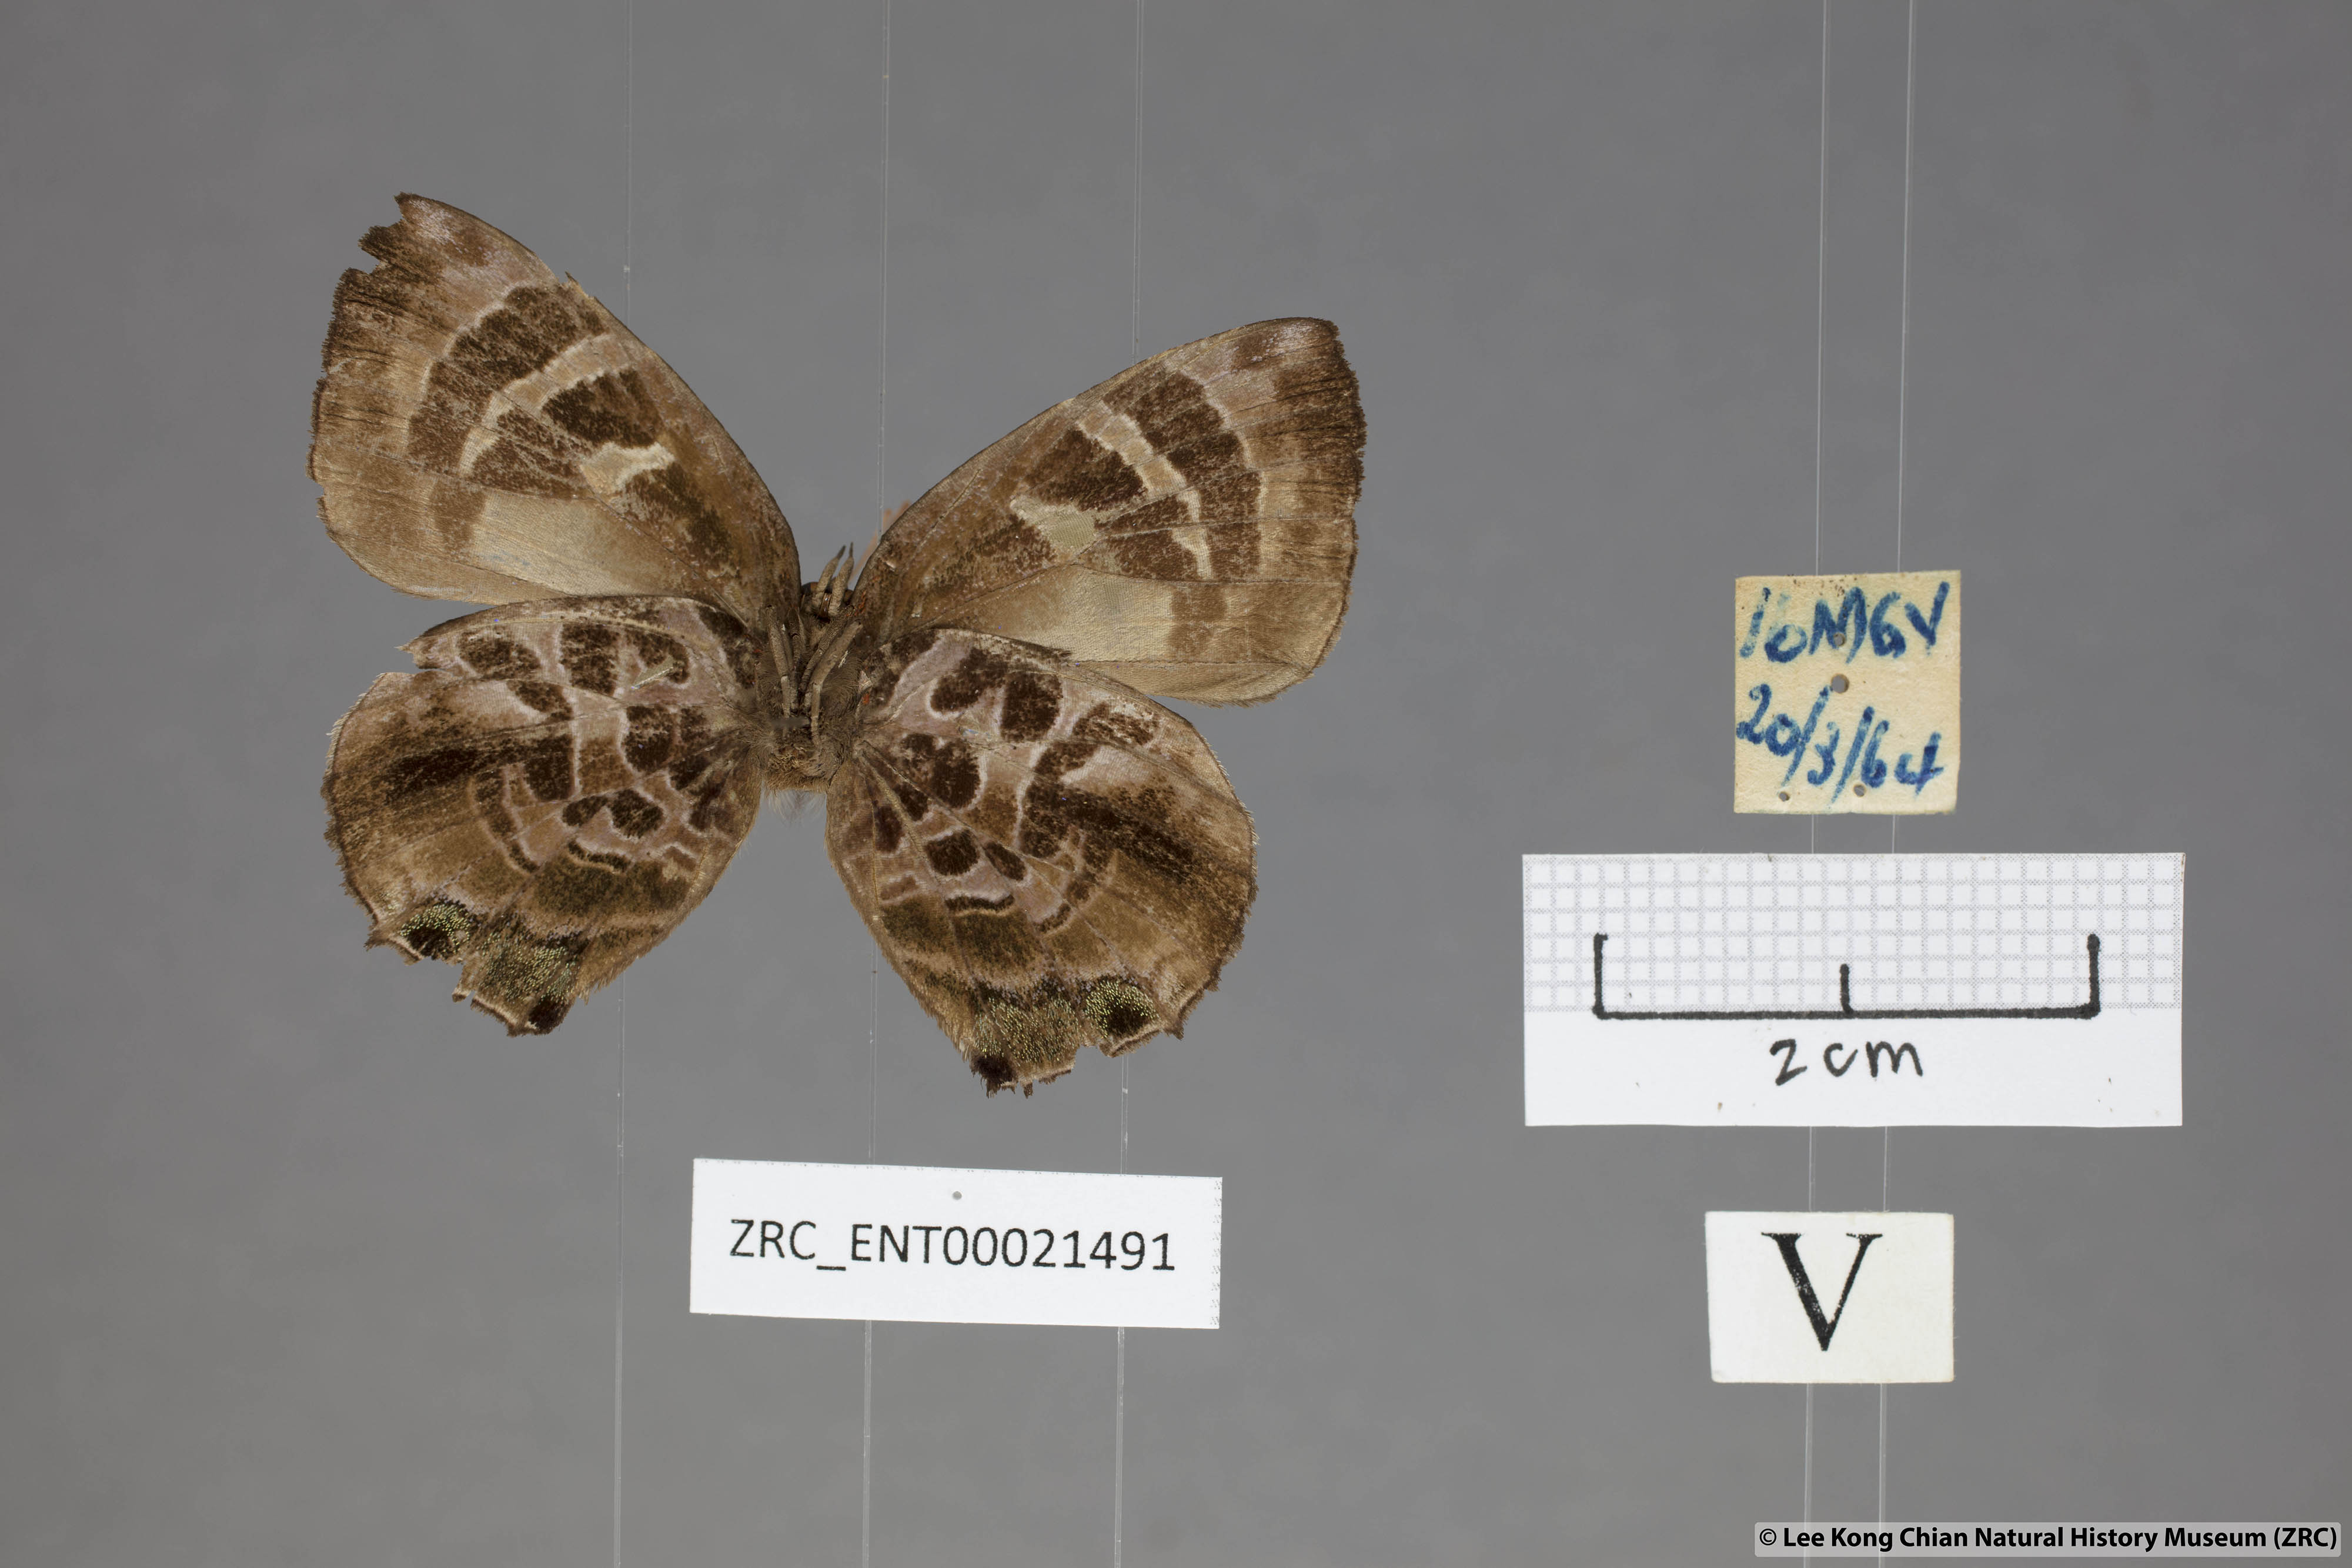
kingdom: Animalia
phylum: Arthropoda
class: Insecta
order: Lepidoptera
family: Lycaenidae
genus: Flos
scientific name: Flos
